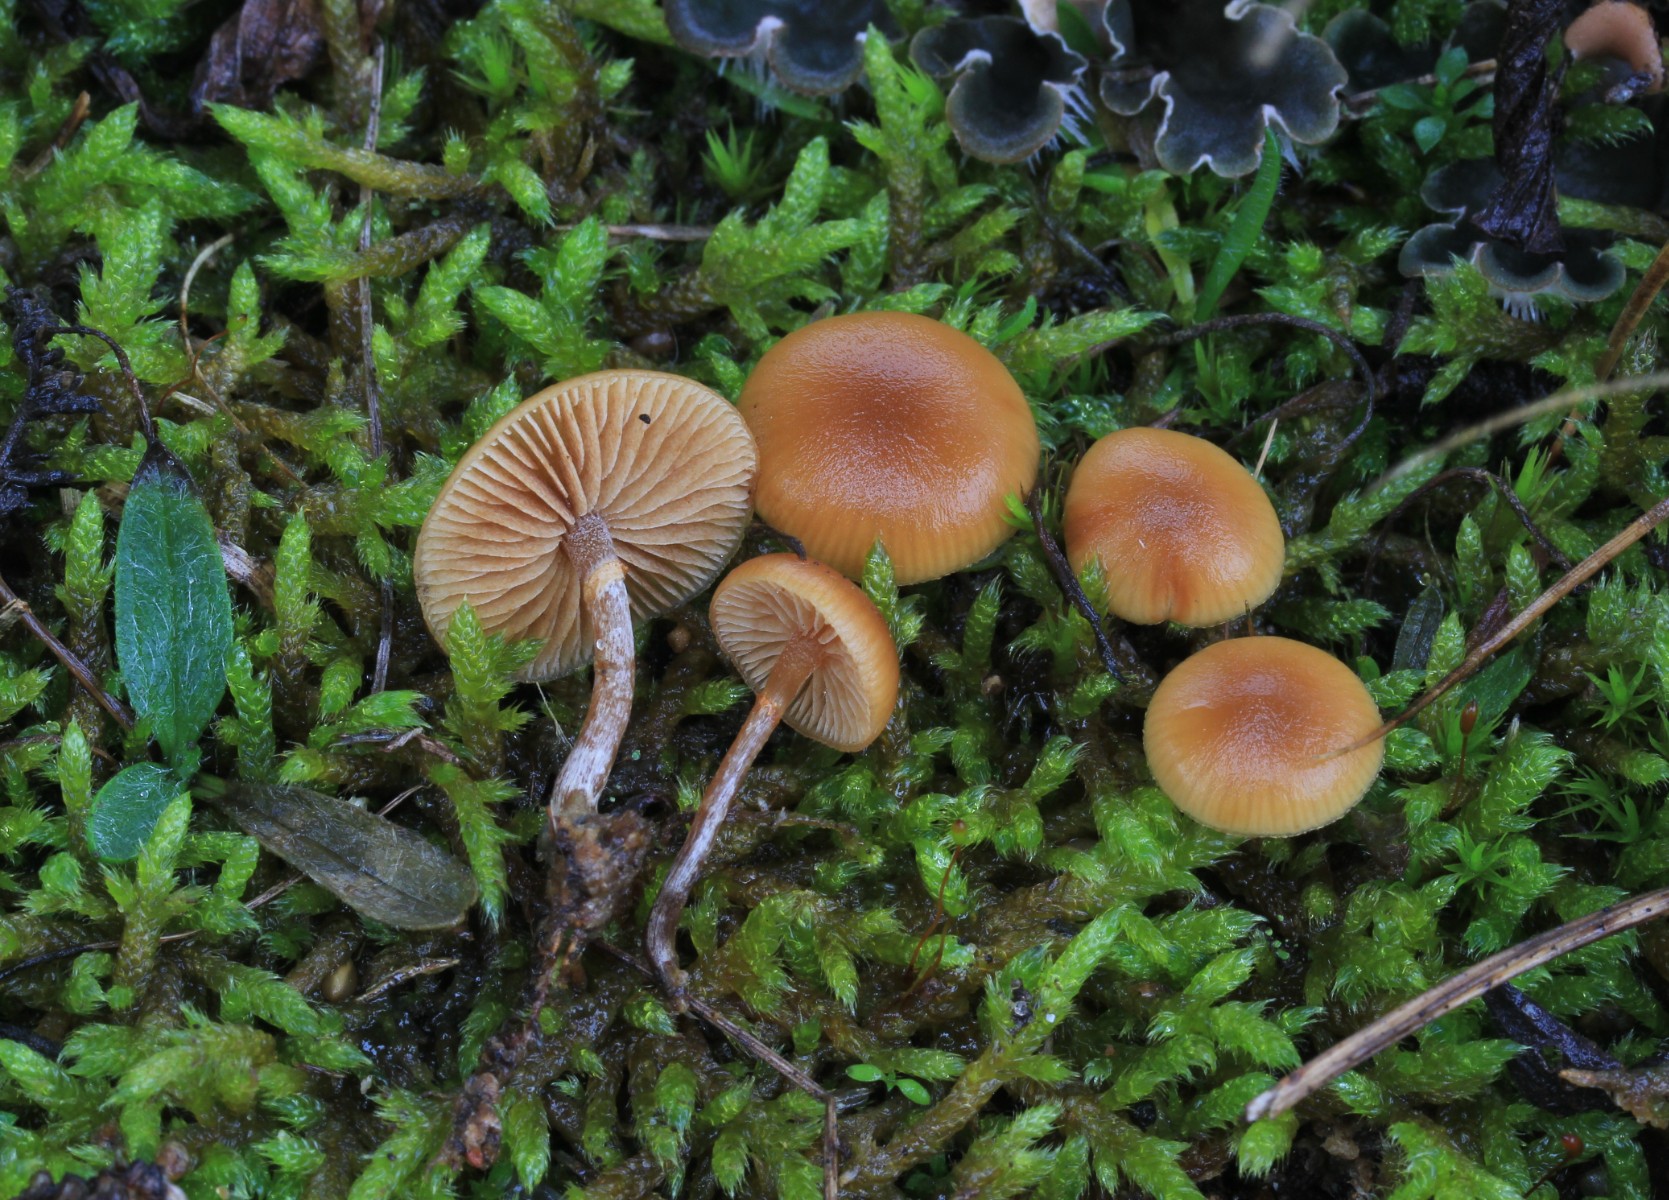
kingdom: Fungi
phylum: Basidiomycota
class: Agaricomycetes
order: Agaricales
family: Hymenogastraceae
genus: Galerina
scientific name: Galerina marginata
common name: randbæltet hjelmhat
